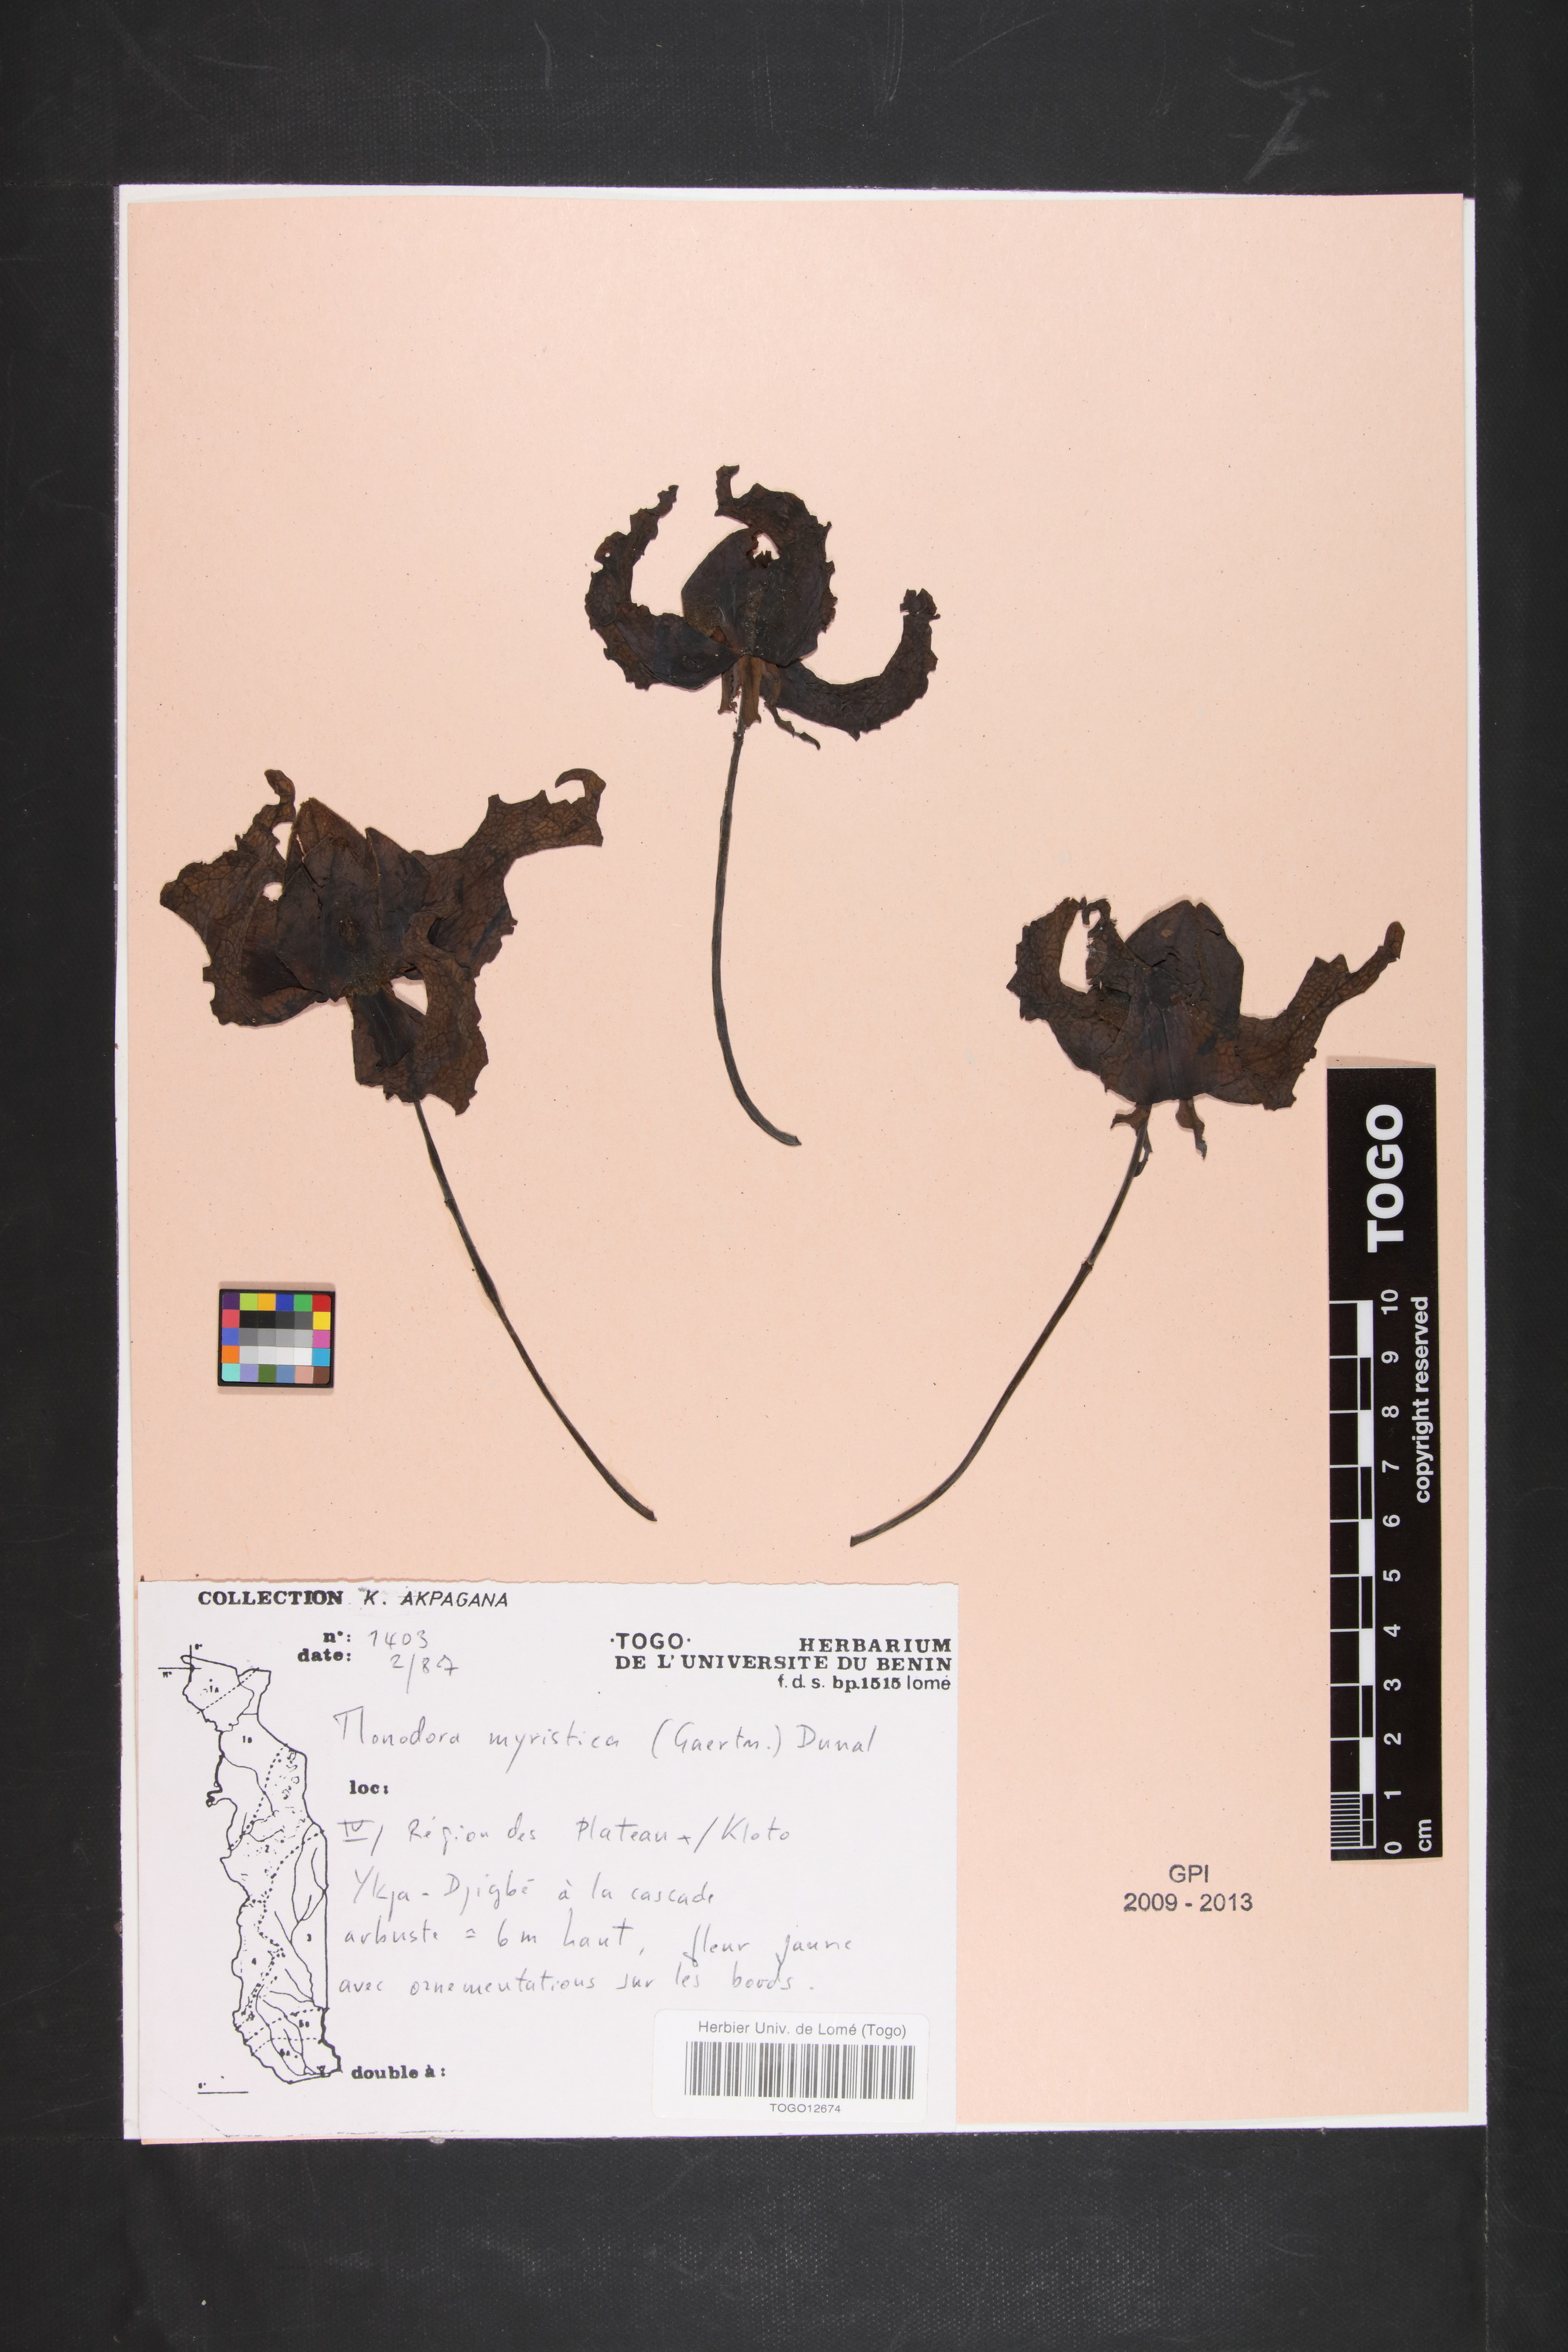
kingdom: Plantae
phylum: Tracheophyta
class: Magnoliopsida
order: Magnoliales
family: Annonaceae
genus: Monodora
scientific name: Monodora myristica
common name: African nutmeg
